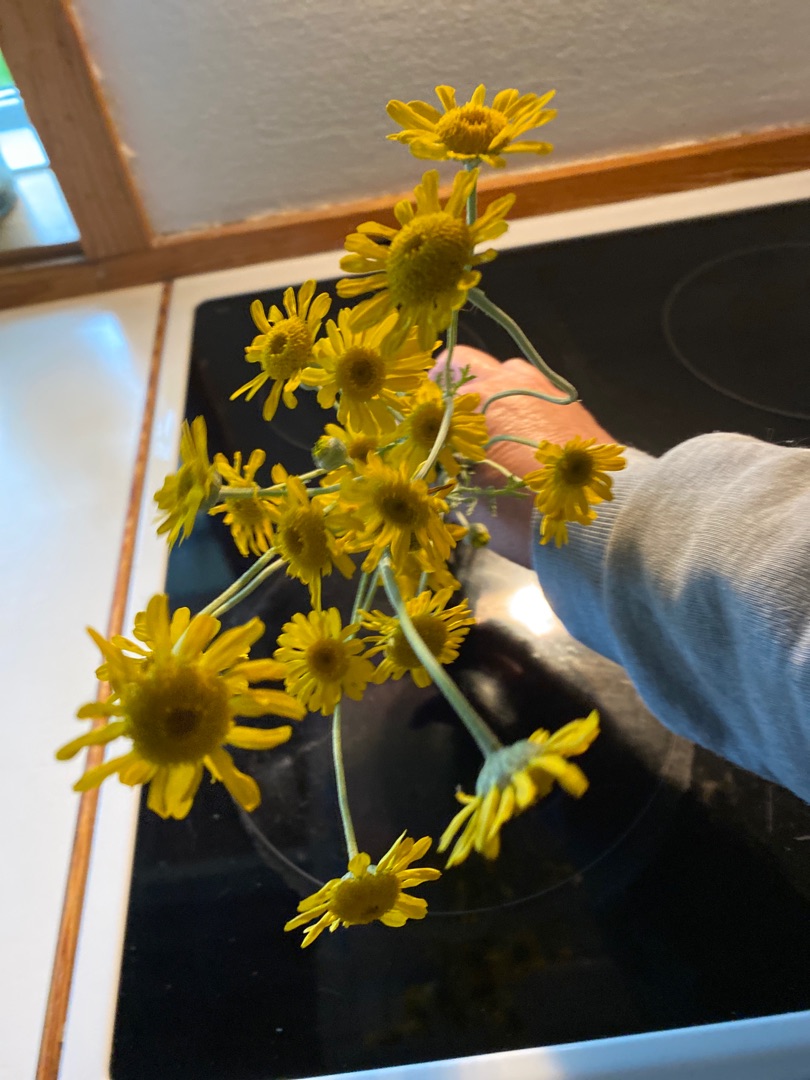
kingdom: Plantae
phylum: Tracheophyta
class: Magnoliopsida
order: Asterales
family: Asteraceae
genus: Cota
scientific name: Cota tinctoria
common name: Farve-gåseurt
